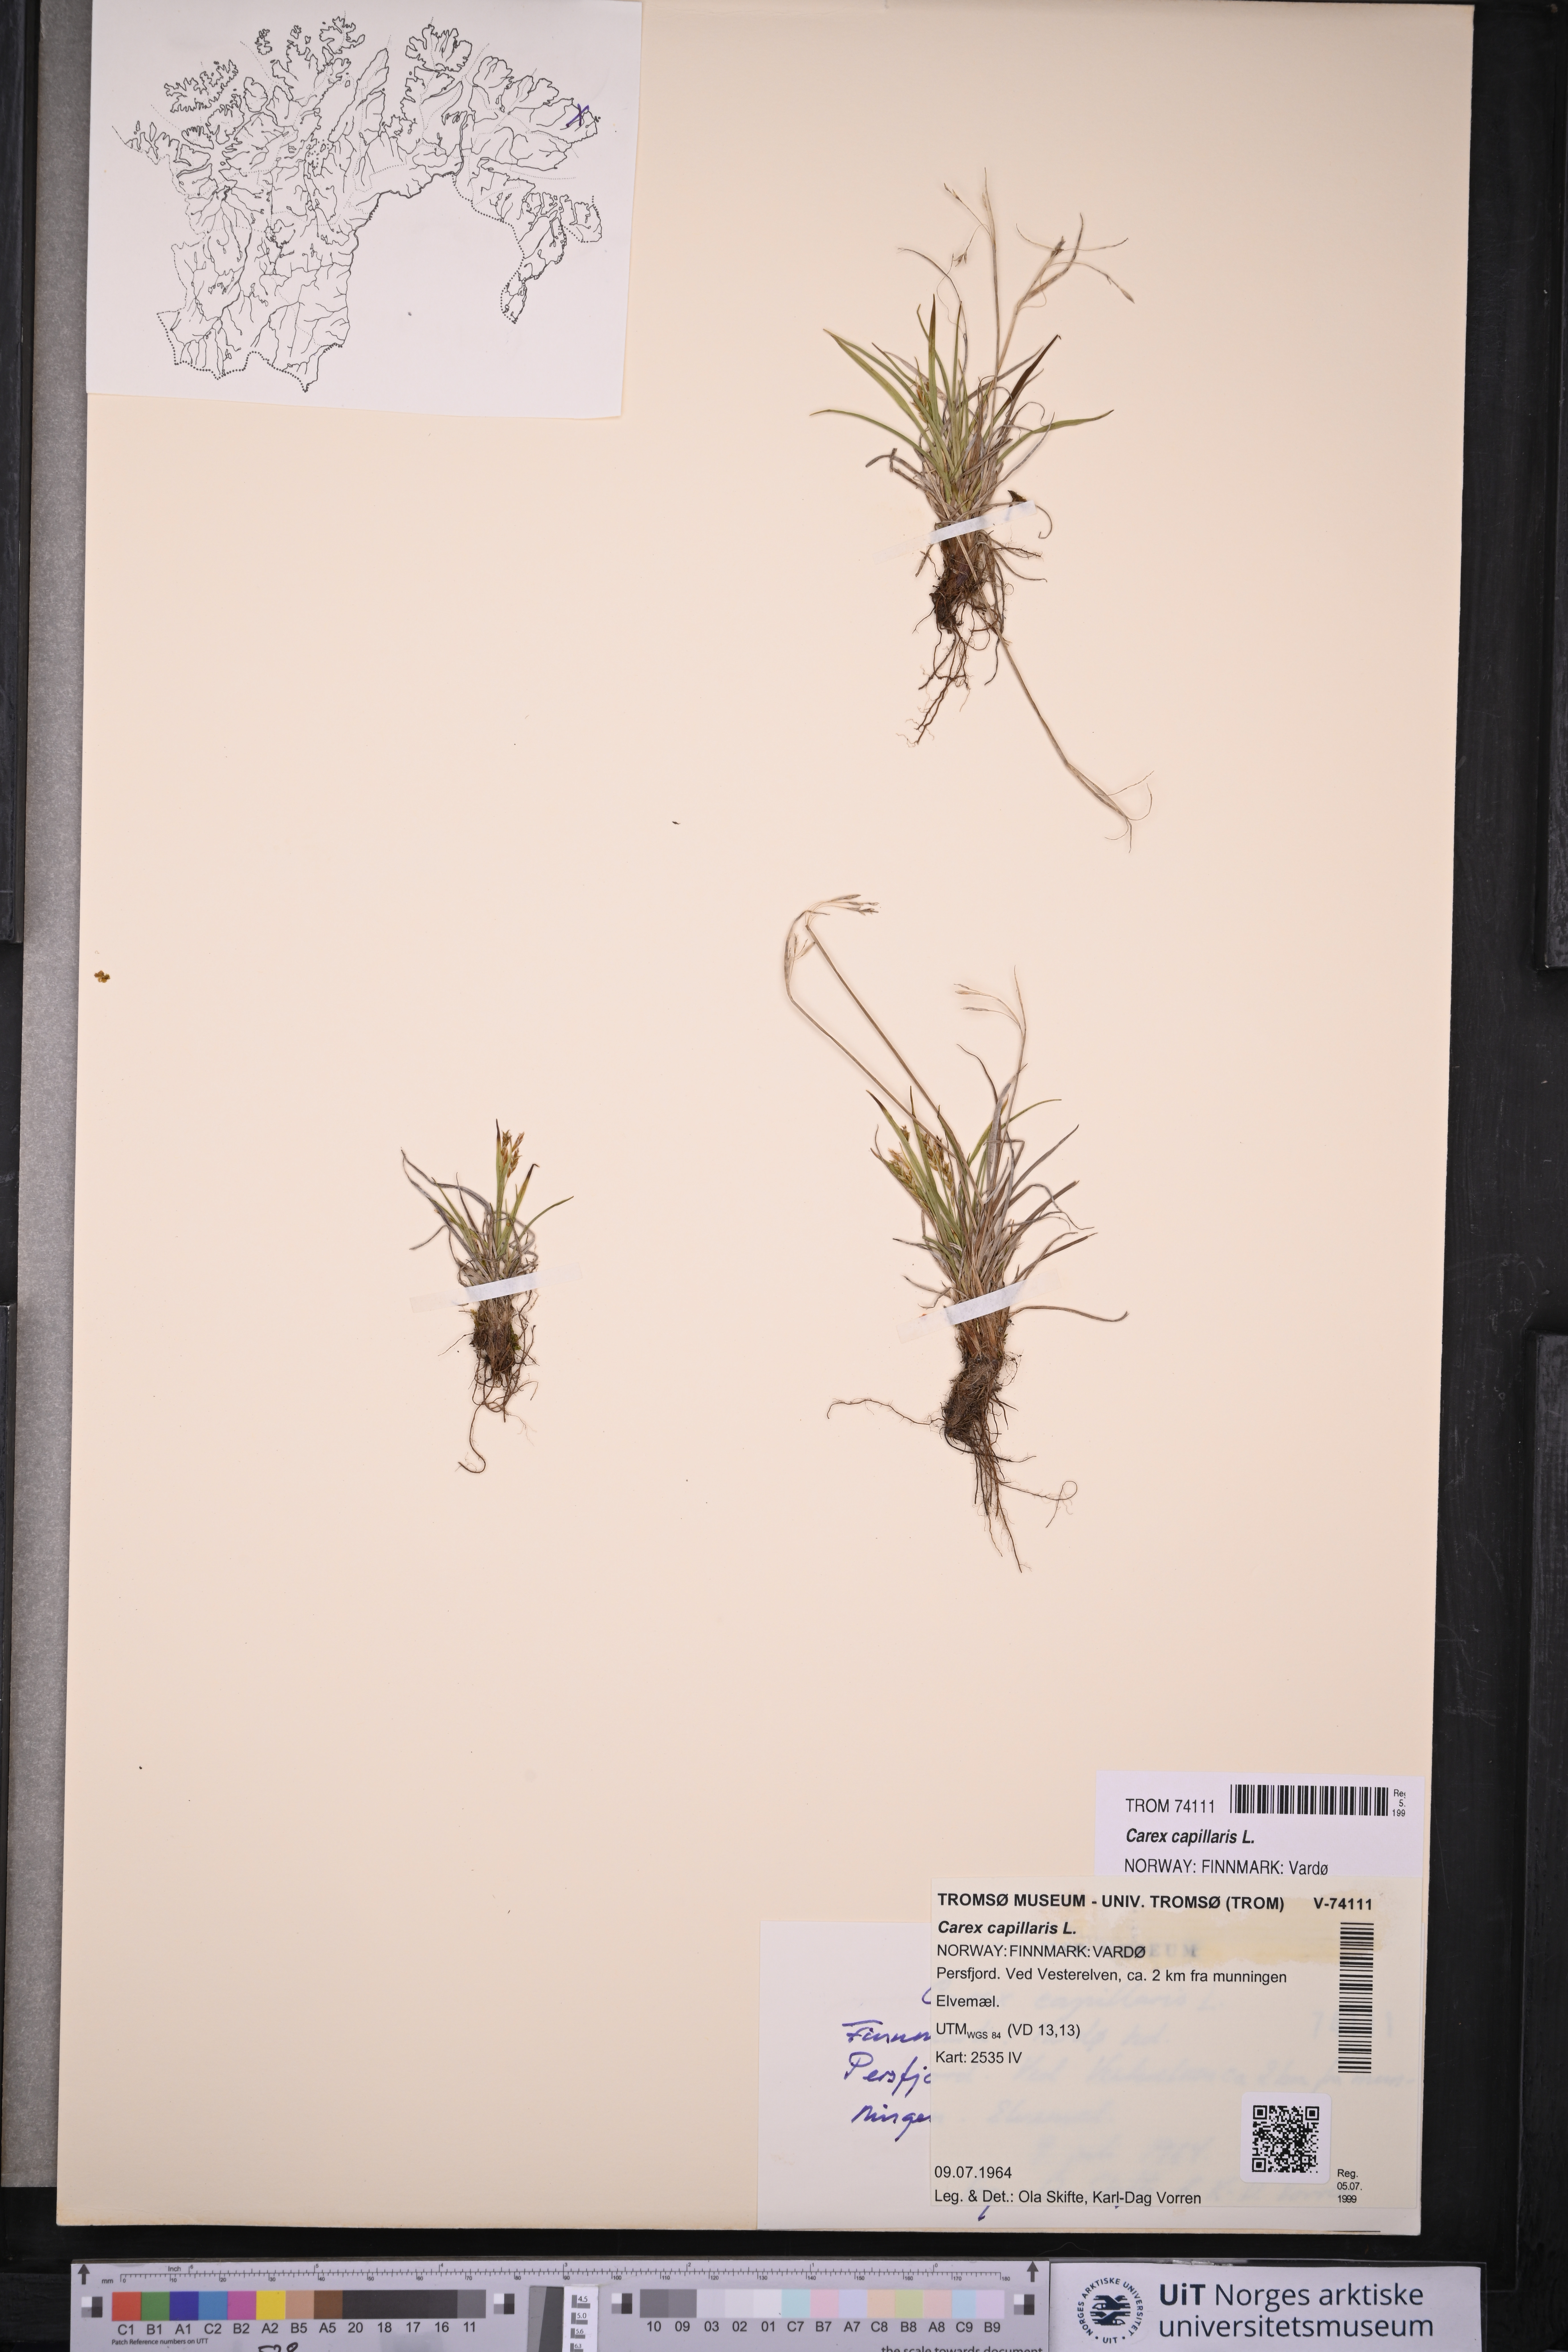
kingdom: Plantae
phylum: Tracheophyta
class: Liliopsida
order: Poales
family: Cyperaceae
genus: Carex
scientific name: Carex capillaris
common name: Hair sedge
